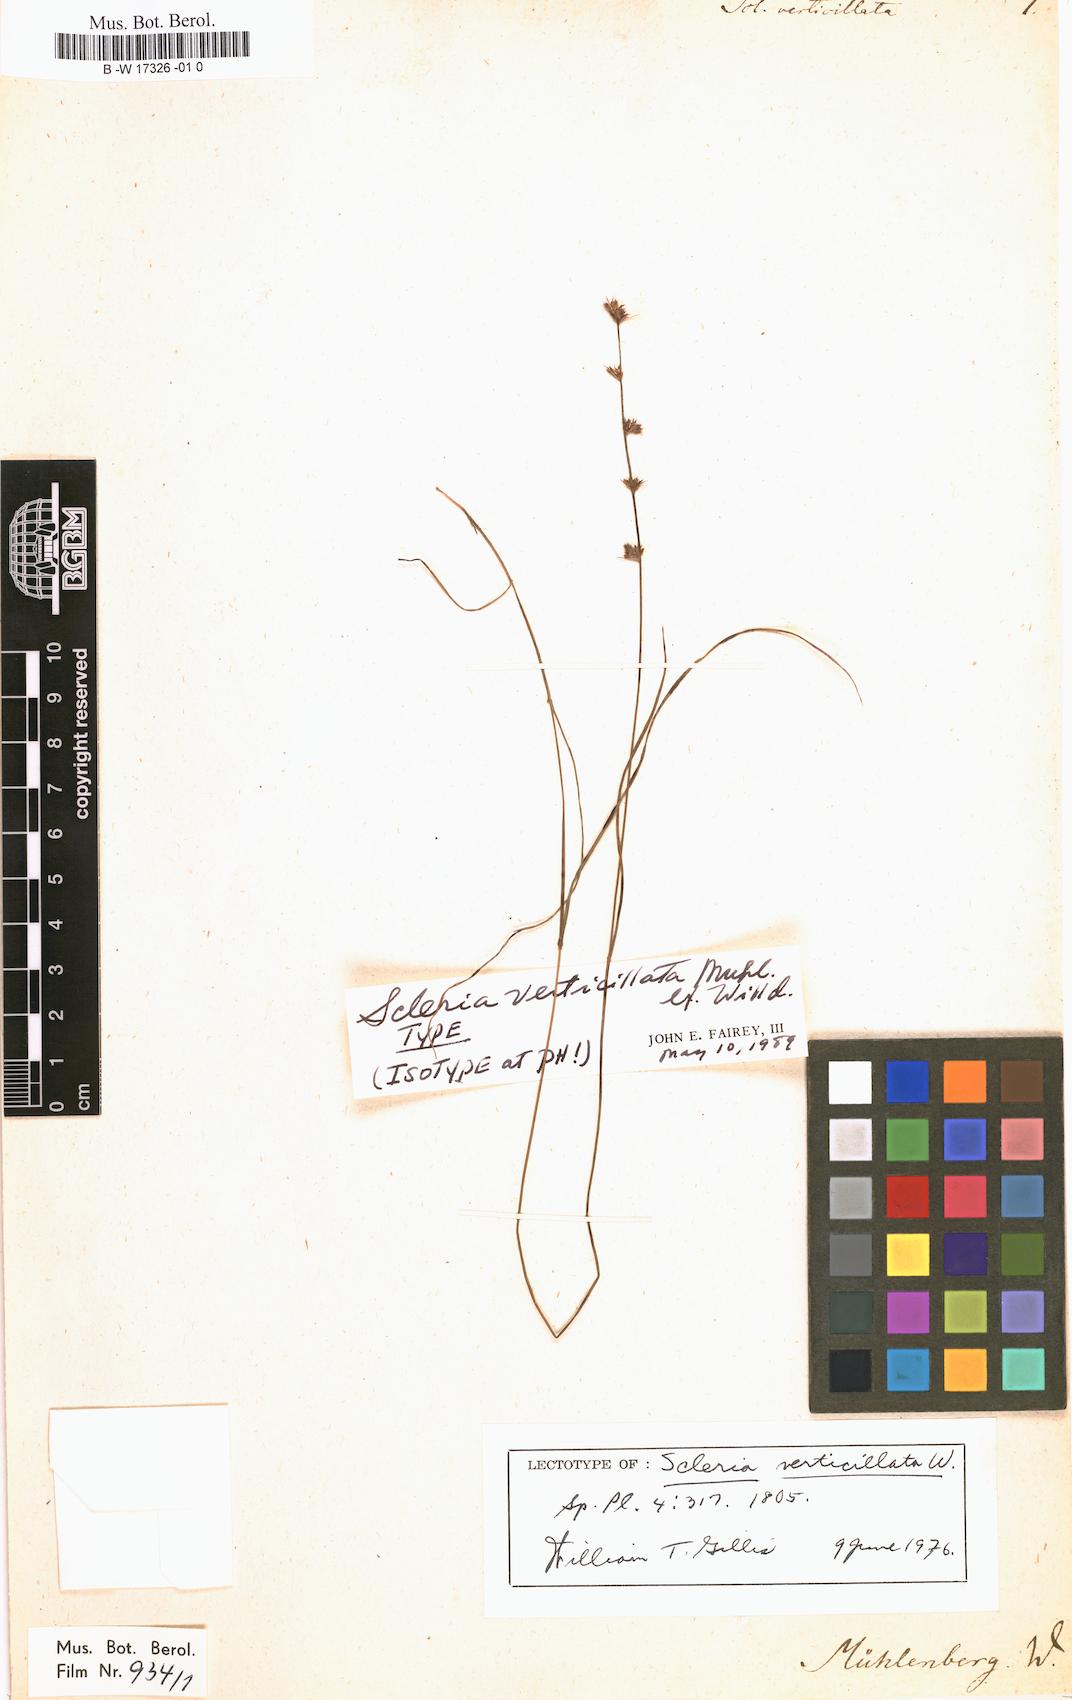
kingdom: Plantae
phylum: Tracheophyta
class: Liliopsida
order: Poales
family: Cyperaceae
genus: Scleria
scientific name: Scleria verticillata
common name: Low nutrush
